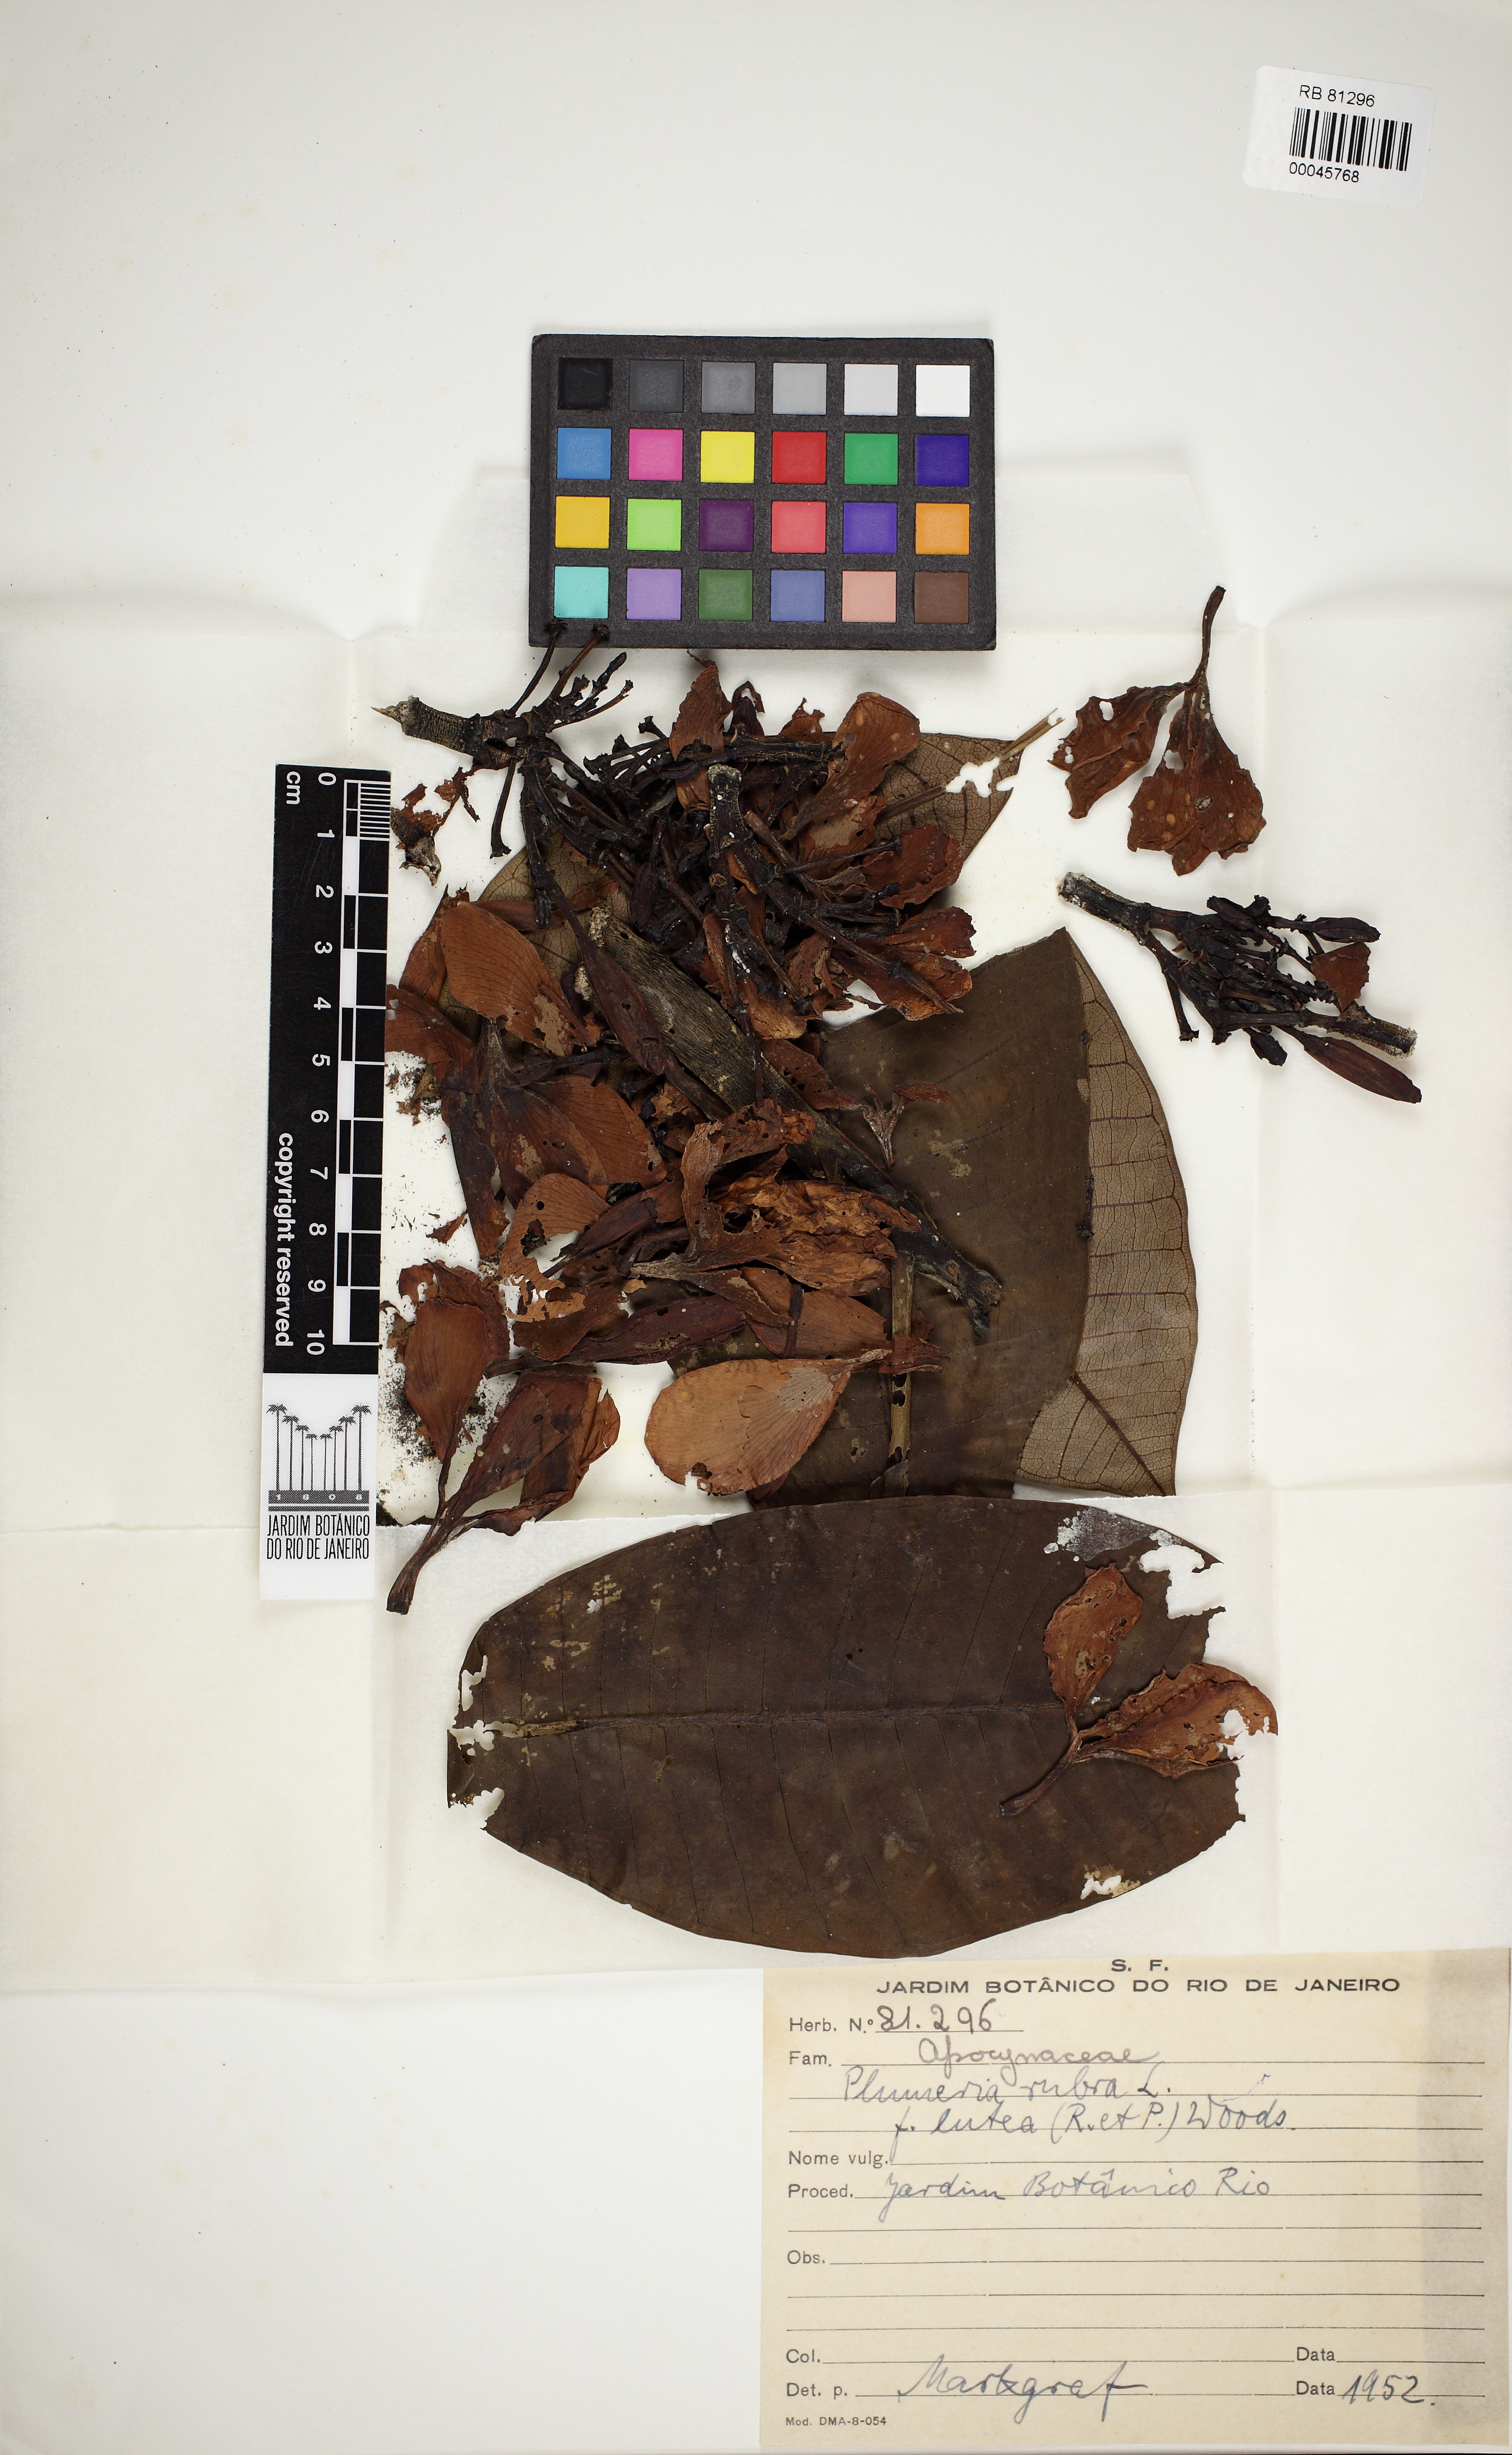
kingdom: Plantae
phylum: Tracheophyta
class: Magnoliopsida
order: Gentianales
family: Apocynaceae
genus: Plumeria
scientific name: Plumeria rubra
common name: Pagoda-tree
